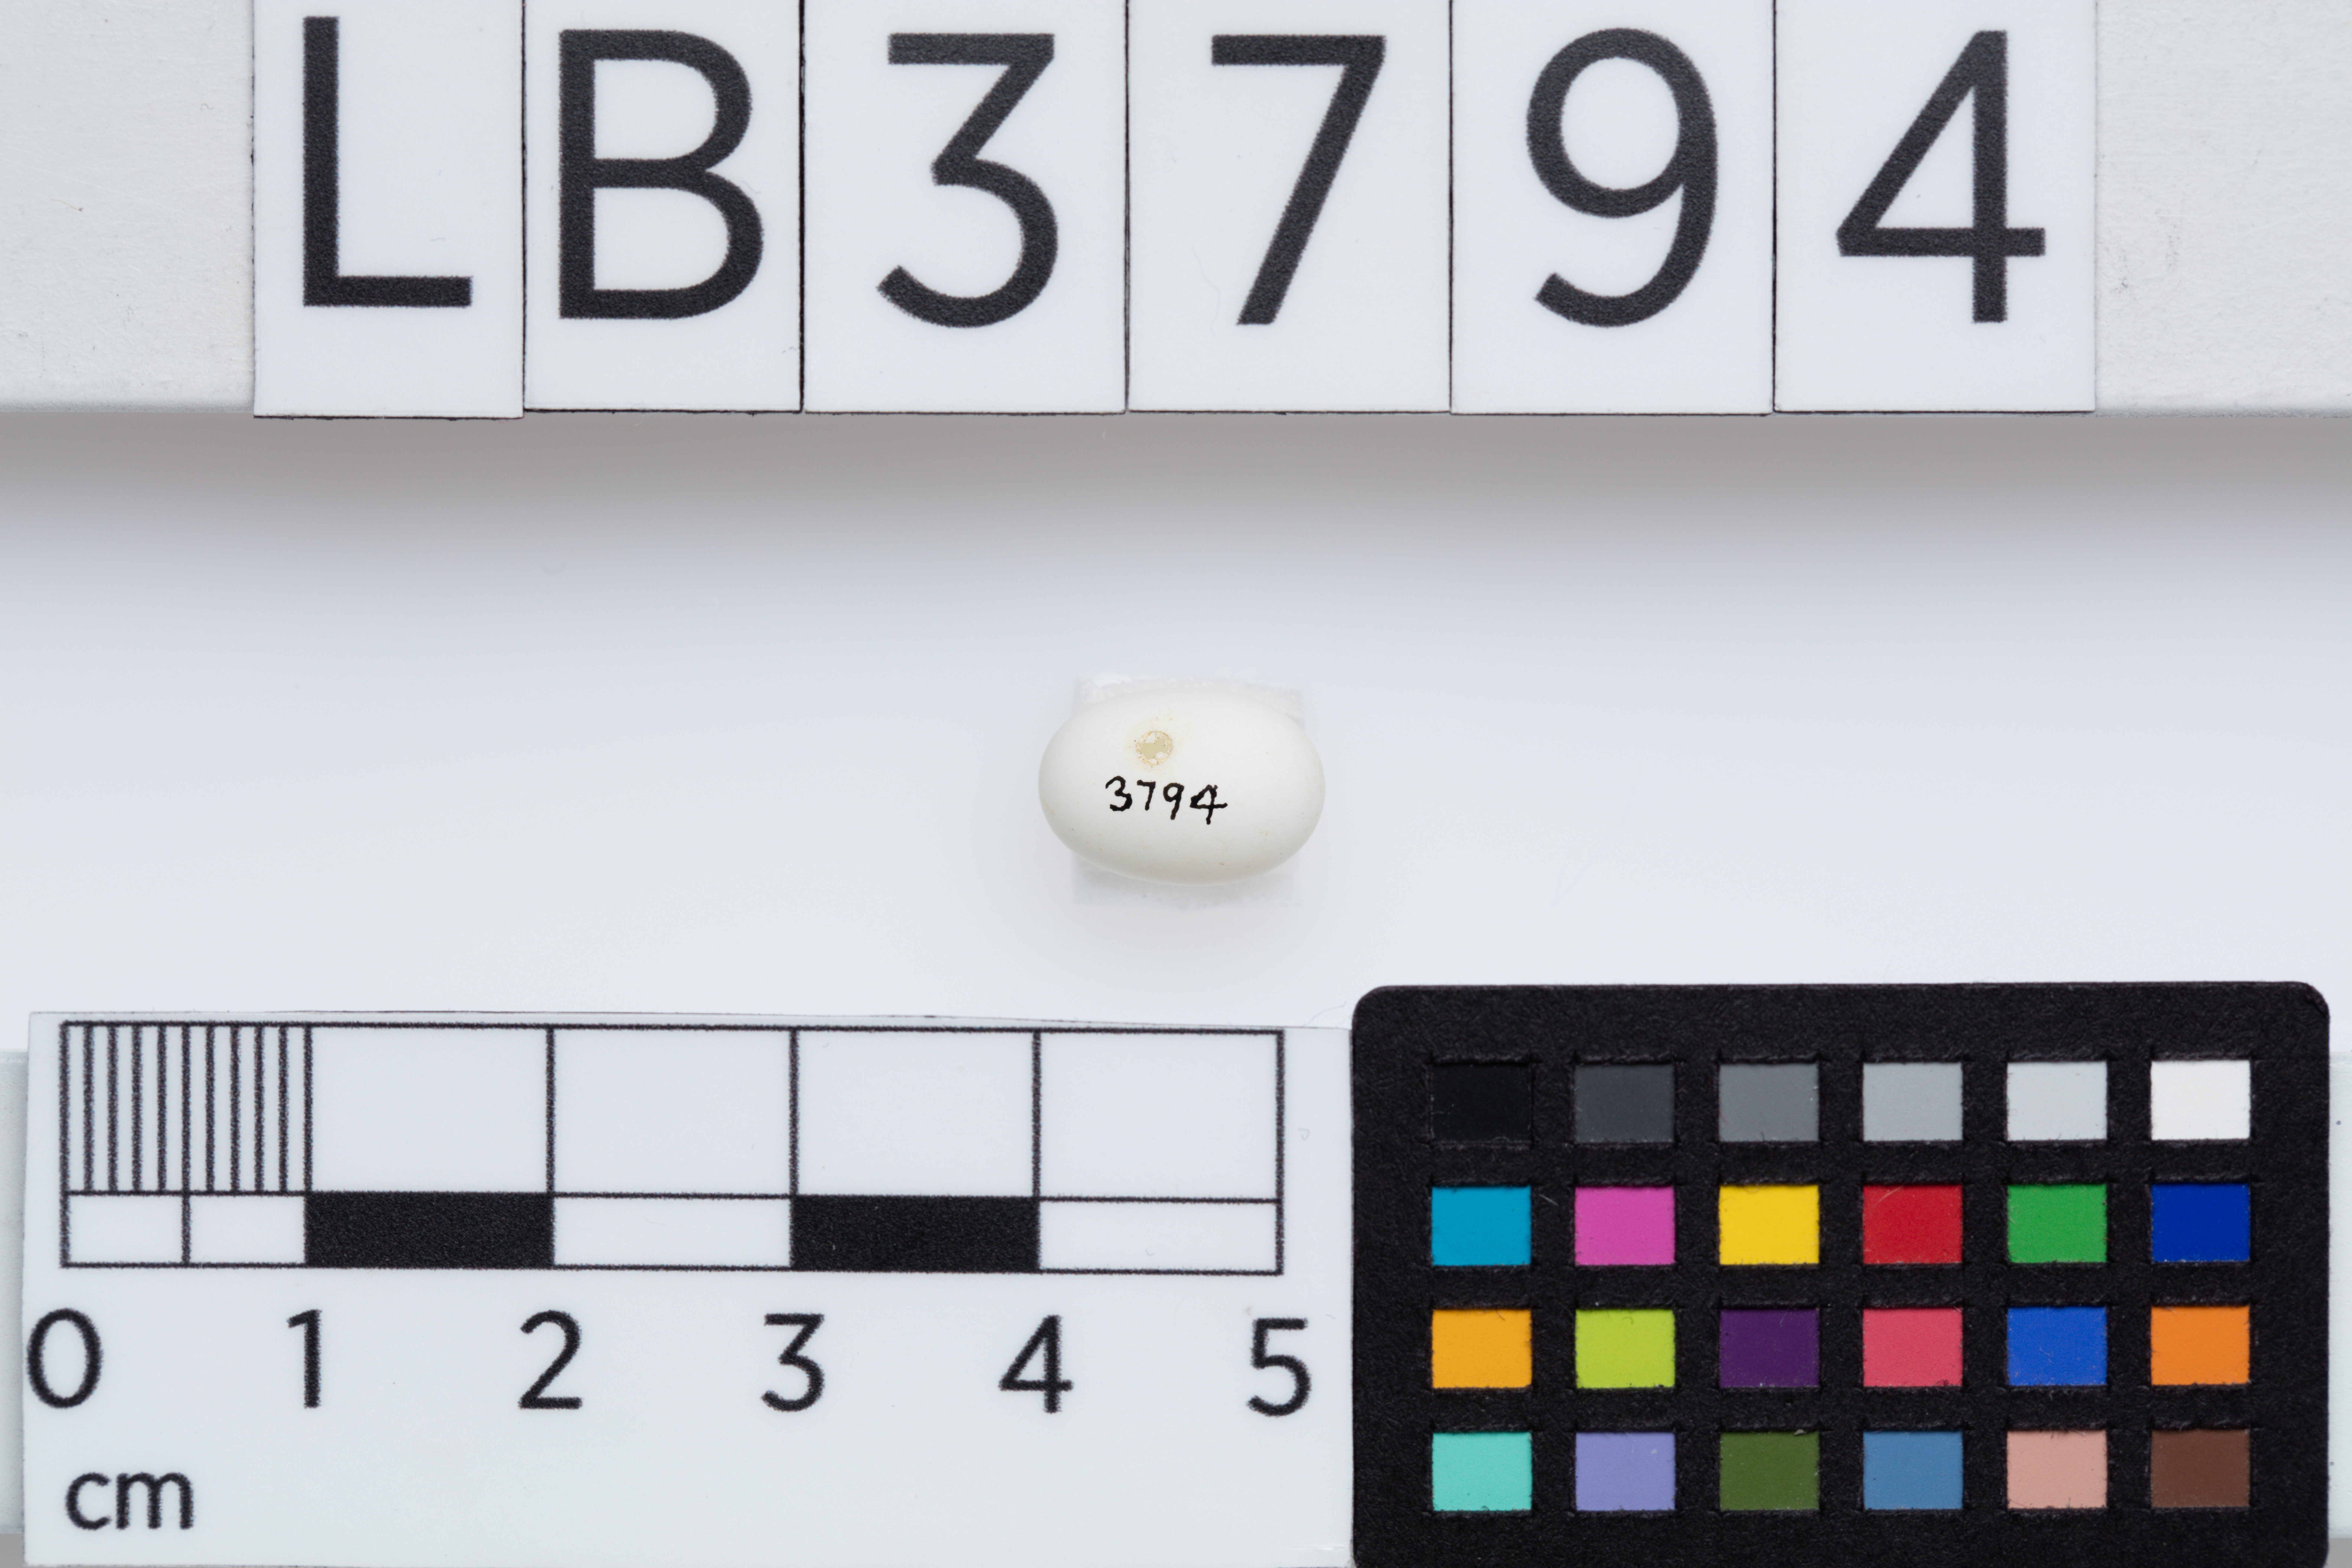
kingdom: Animalia
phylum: Chordata
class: Aves
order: Apodiformes
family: Trochilidae
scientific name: Trochilidae
